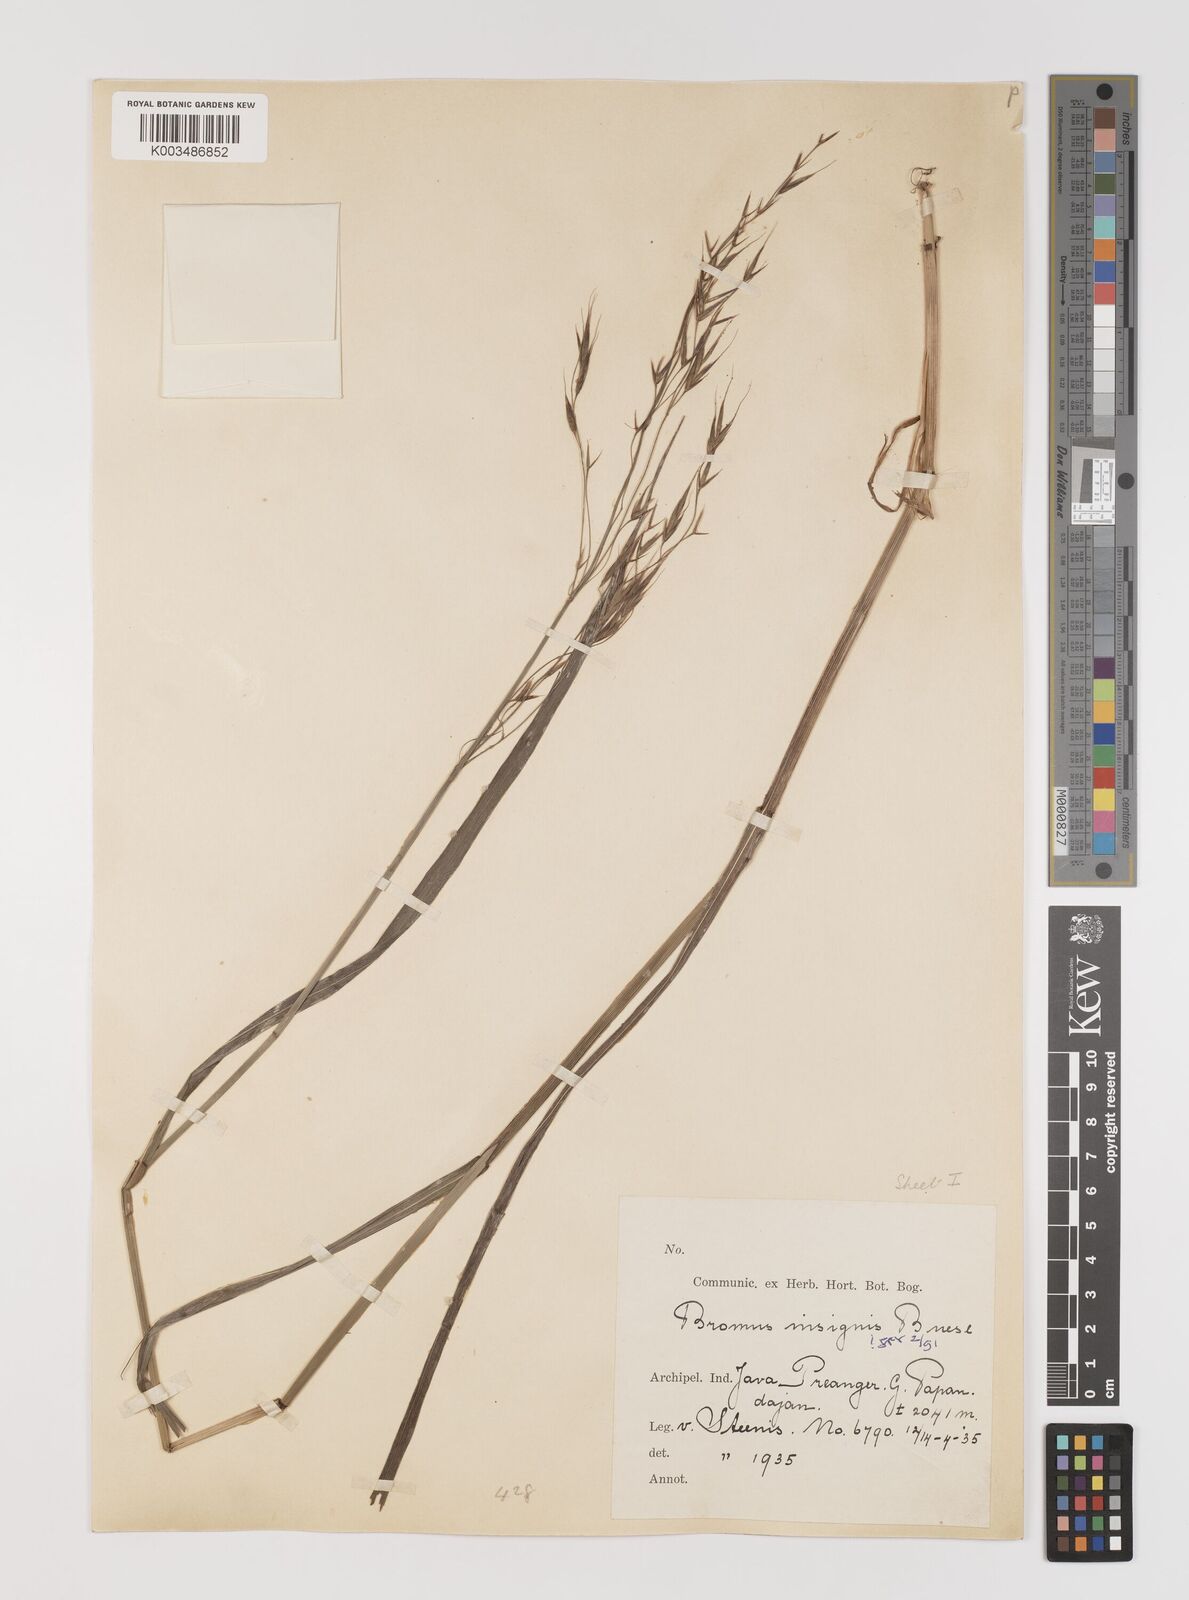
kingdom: Plantae
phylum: Tracheophyta
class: Liliopsida
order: Poales
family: Poaceae
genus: Bromus
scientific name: Bromus insignis
